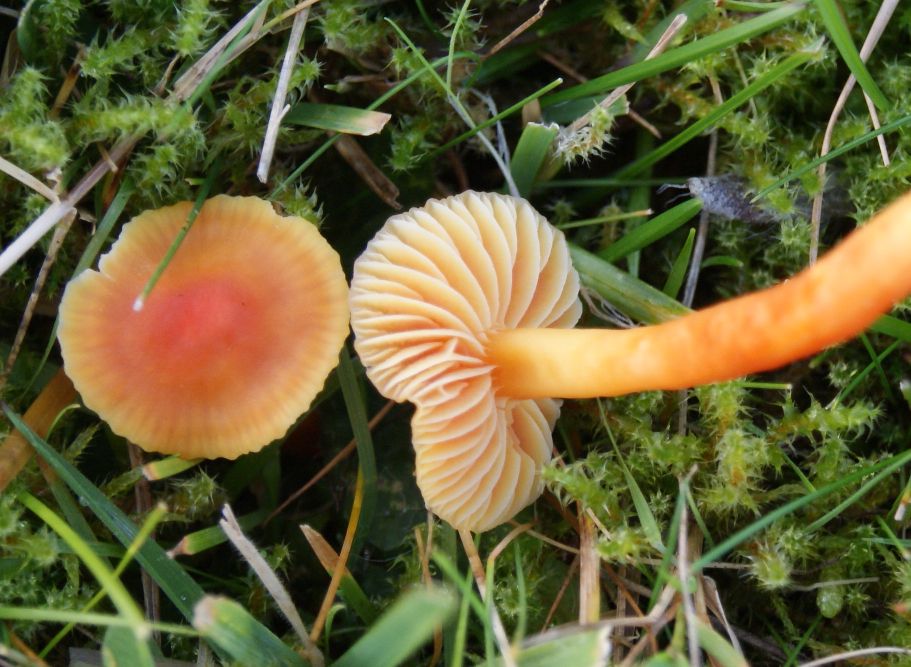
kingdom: Fungi
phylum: Basidiomycota
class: Agaricomycetes
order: Agaricales
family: Hygrophoraceae
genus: Hygrocybe
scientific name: Hygrocybe mucronella
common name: bitter vokshat
